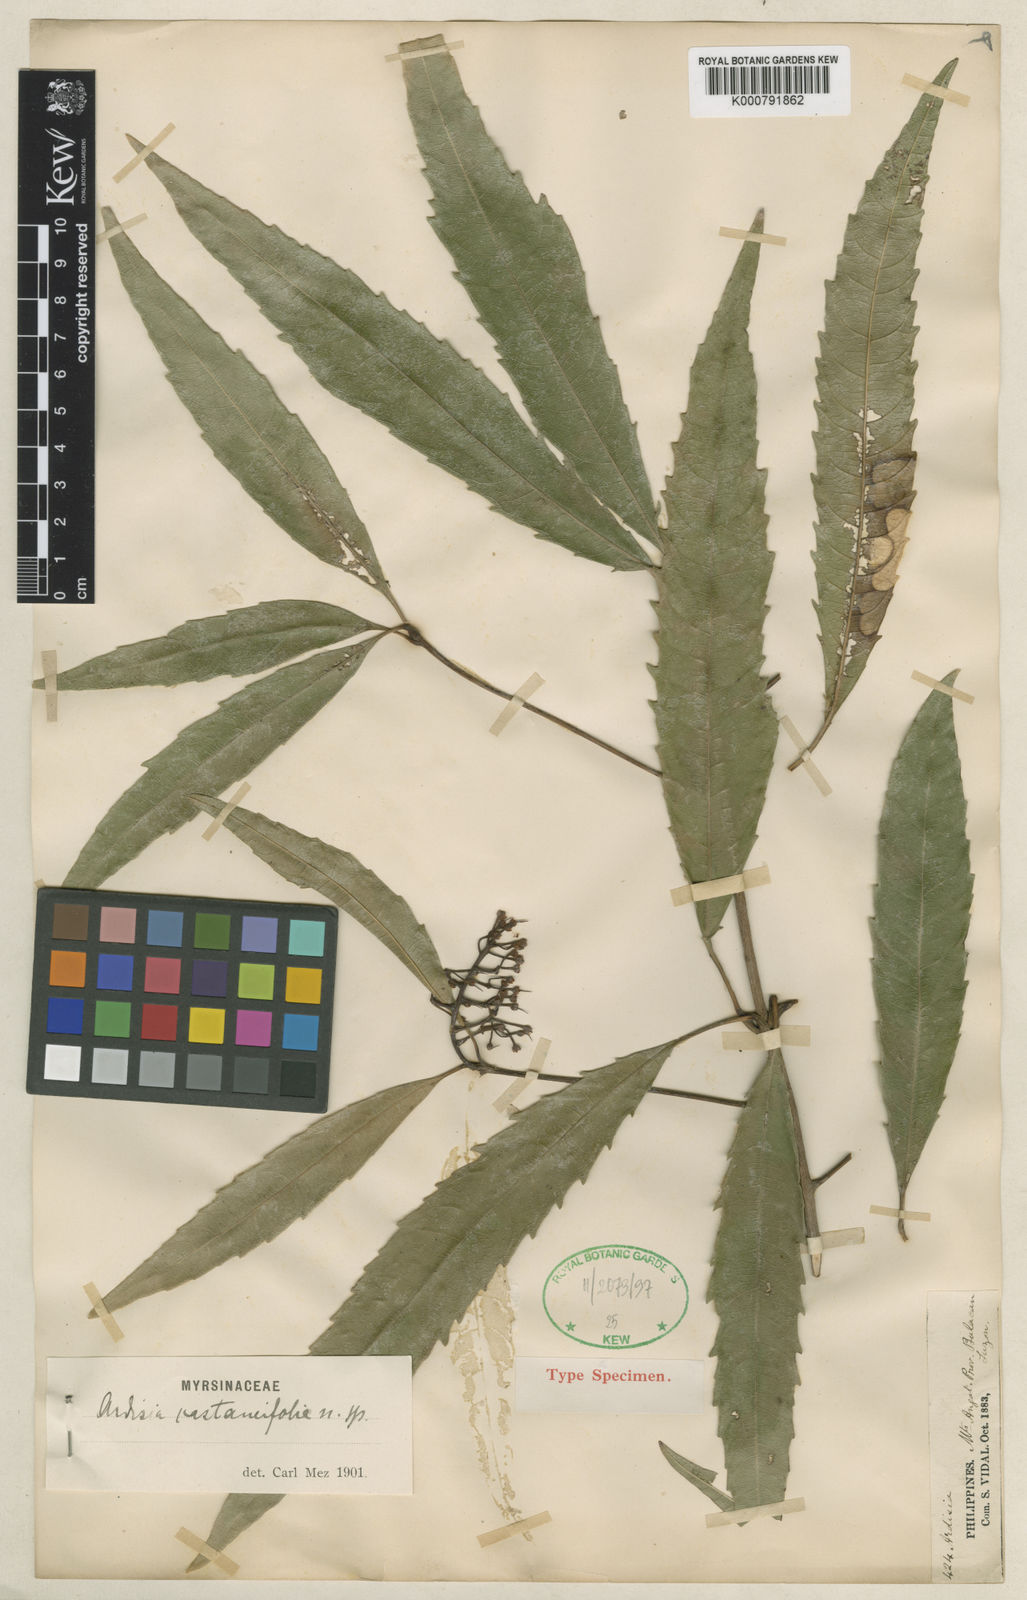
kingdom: Plantae
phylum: Tracheophyta
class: Magnoliopsida
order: Ericales
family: Primulaceae
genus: Ardisia
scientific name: Ardisia castaneifolia
